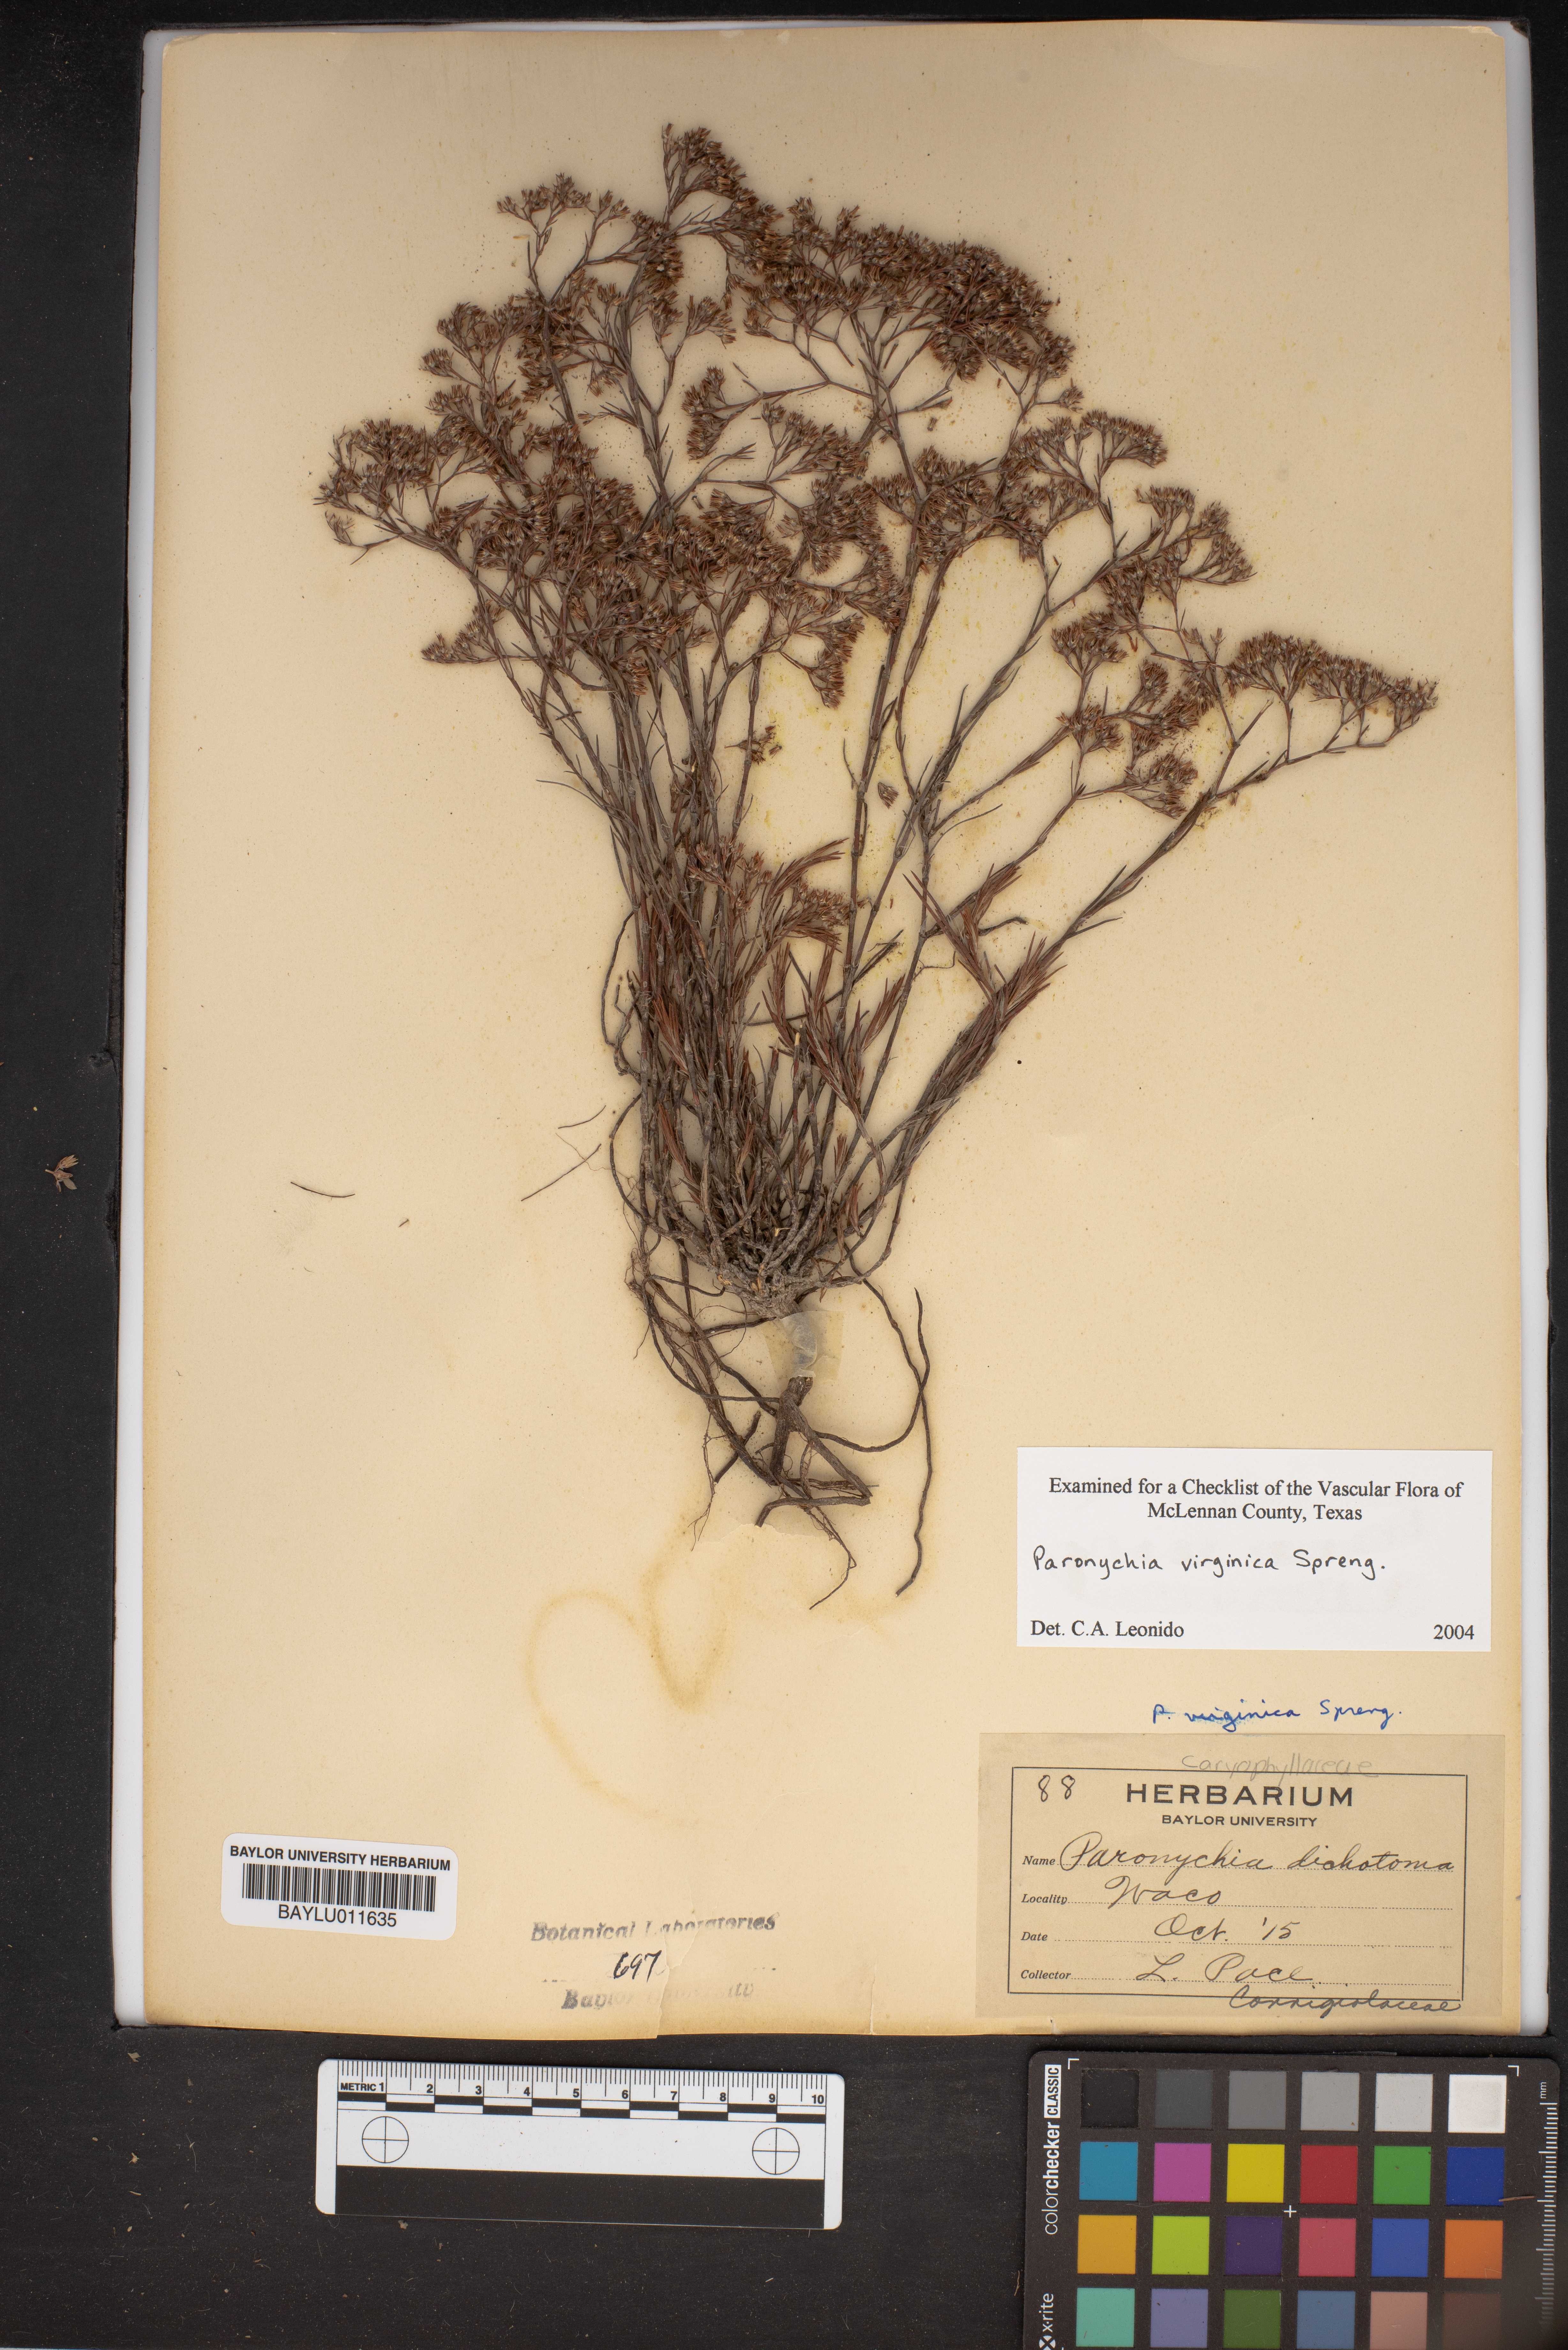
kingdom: Plantae
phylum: Tracheophyta
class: Magnoliopsida
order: Caryophyllales
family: Caryophyllaceae
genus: Paronychia
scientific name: Paronychia canadensis
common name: Canada forked nailwort
